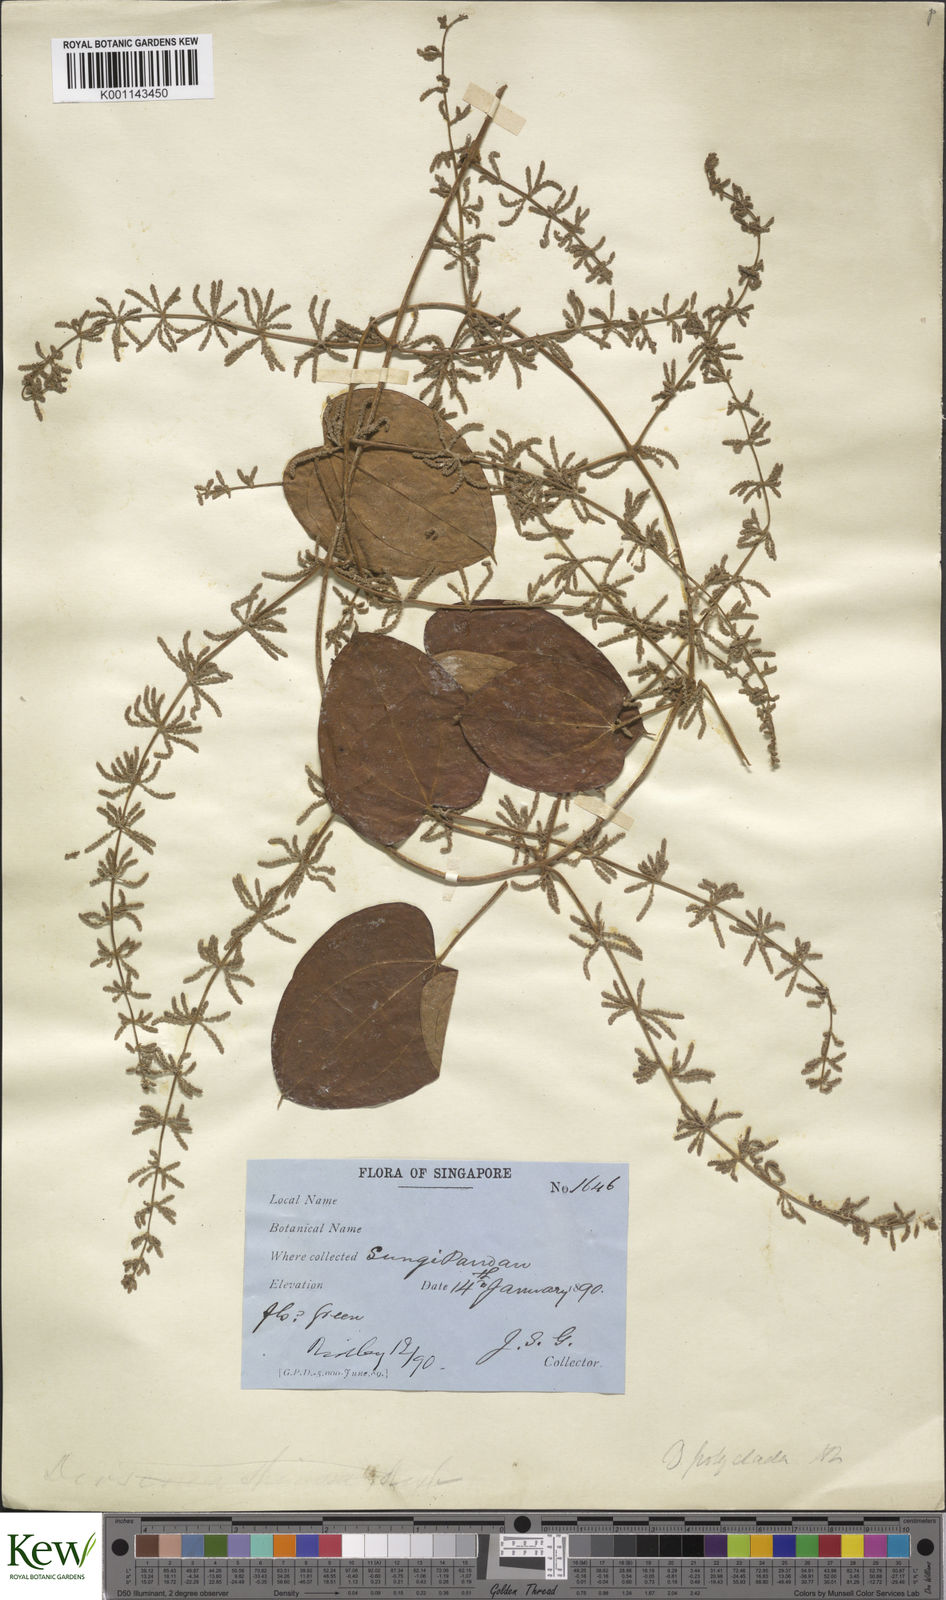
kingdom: Plantae
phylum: Tracheophyta
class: Liliopsida
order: Dioscoreales
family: Dioscoreaceae
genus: Dioscorea
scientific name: Dioscorea polyclados
